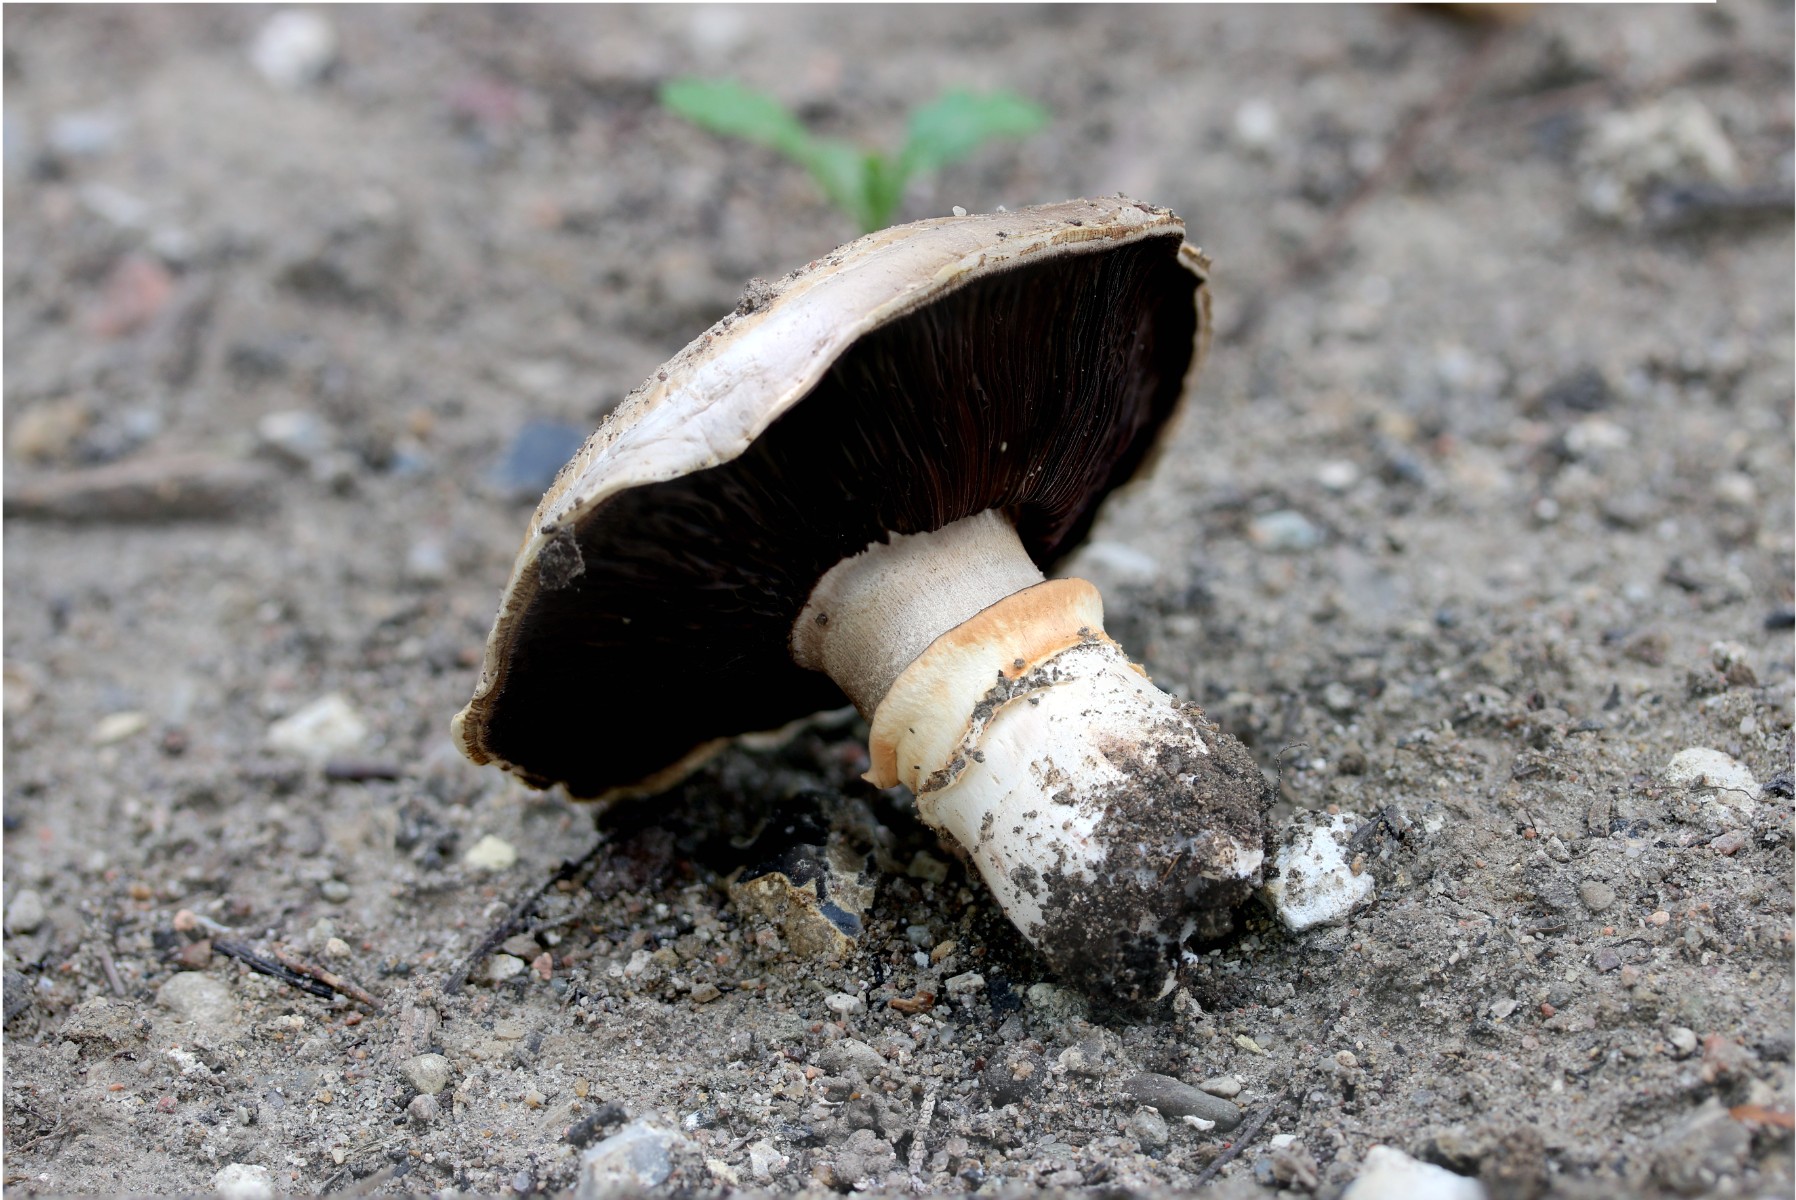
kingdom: Fungi
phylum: Basidiomycota
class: Agaricomycetes
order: Agaricales
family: Agaricaceae
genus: Agaricus
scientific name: Agaricus bitorquis
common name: vej-champignon
